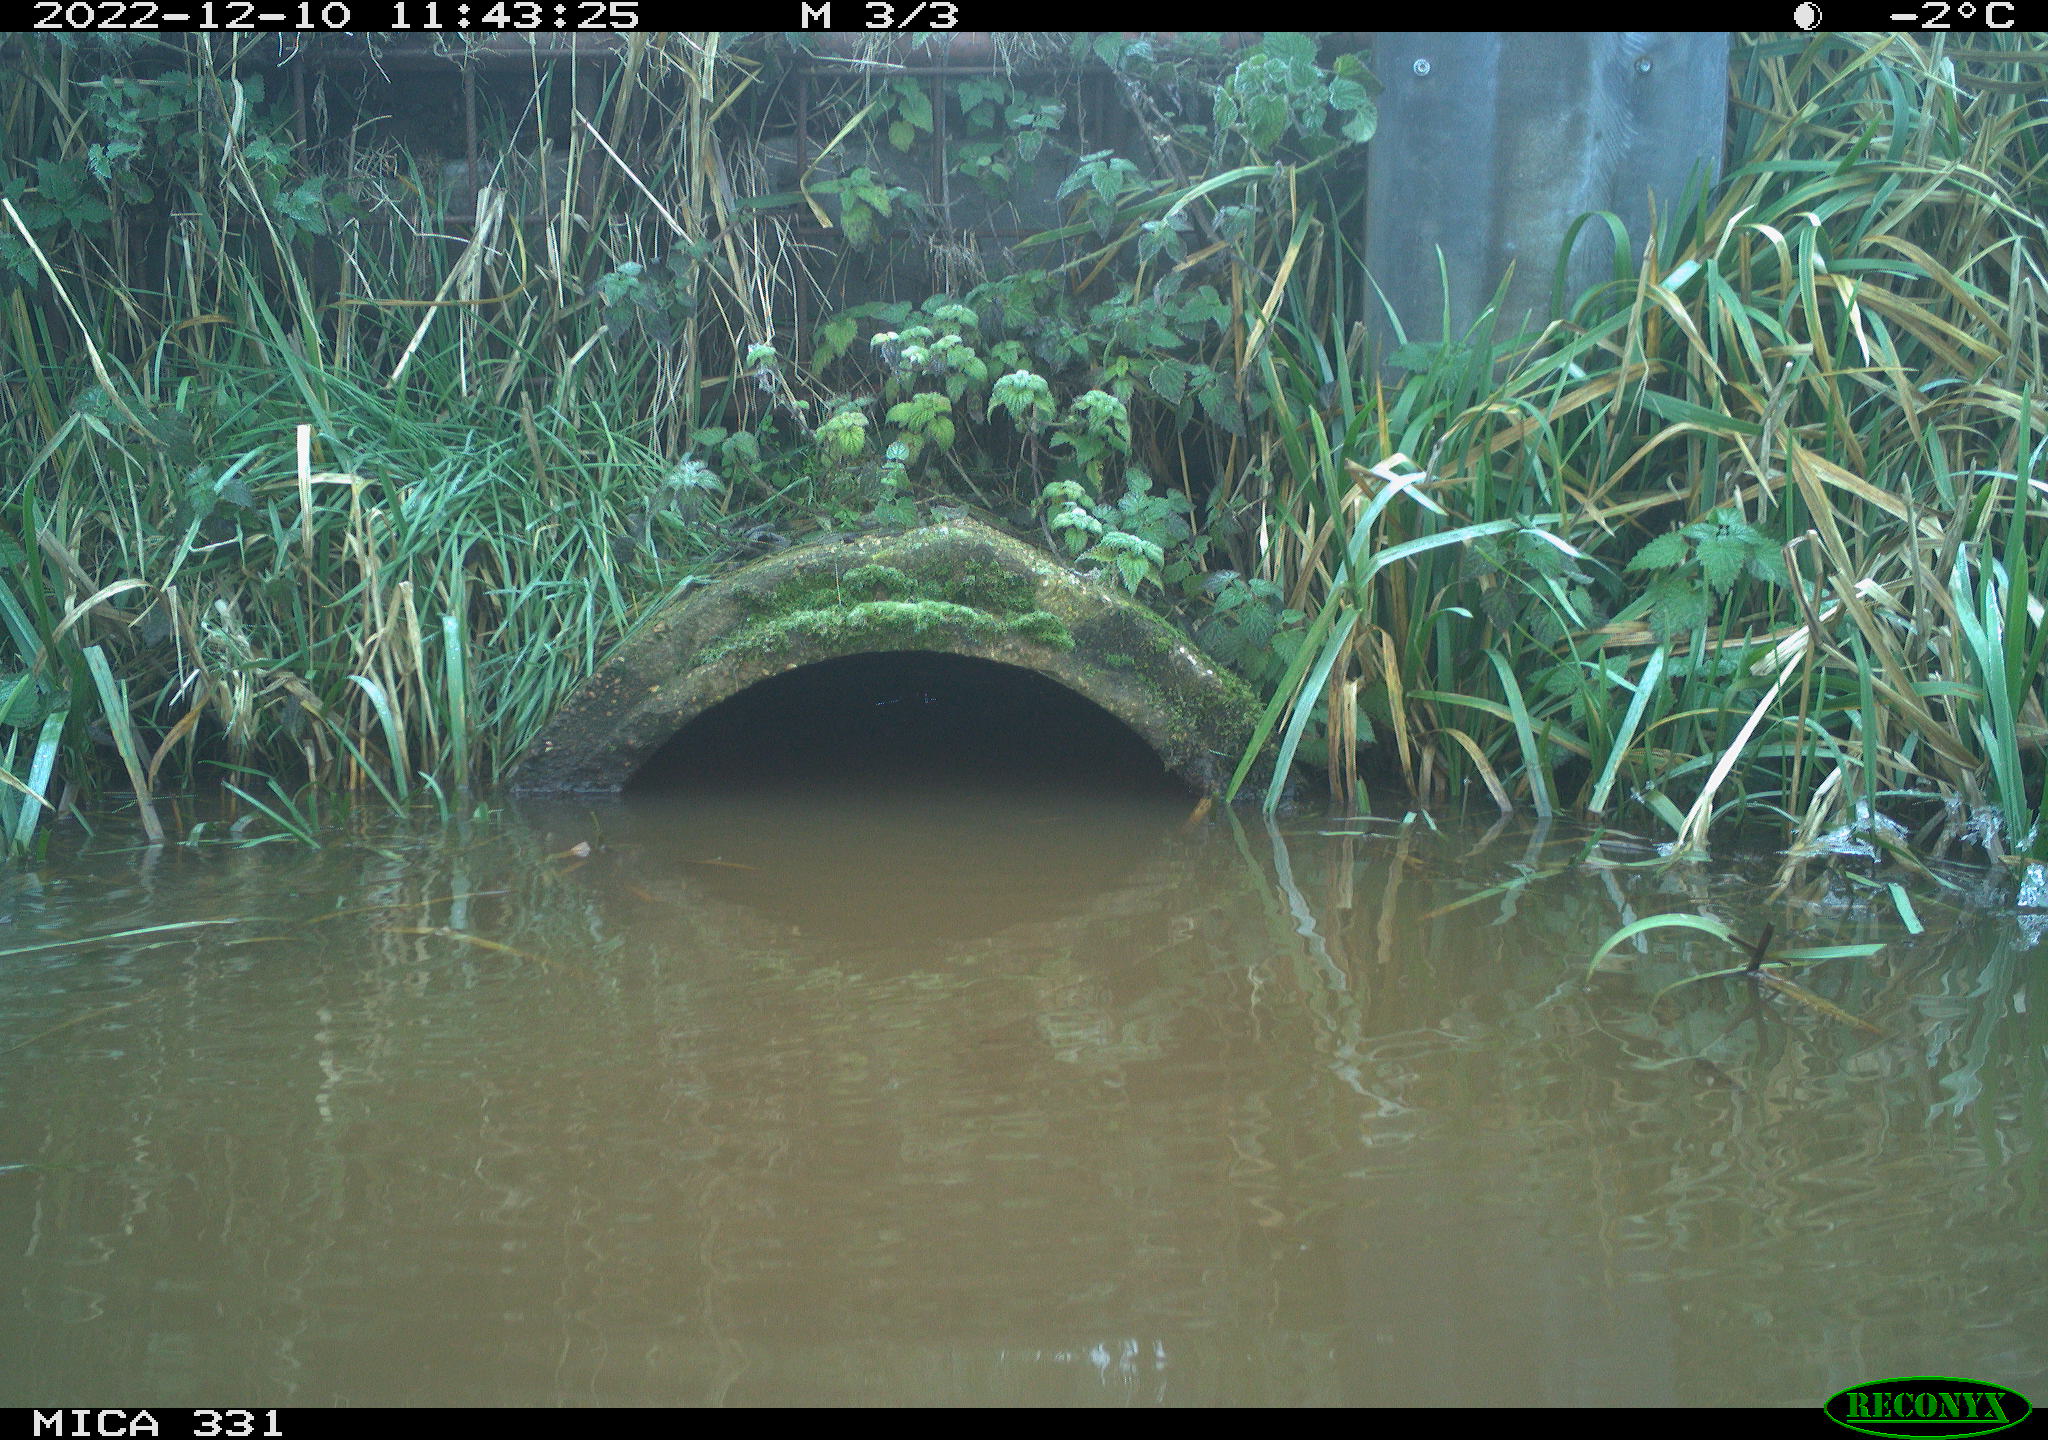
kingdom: Animalia
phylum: Chordata
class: Aves
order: Gruiformes
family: Rallidae
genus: Gallinula
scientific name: Gallinula chloropus
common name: Common moorhen
